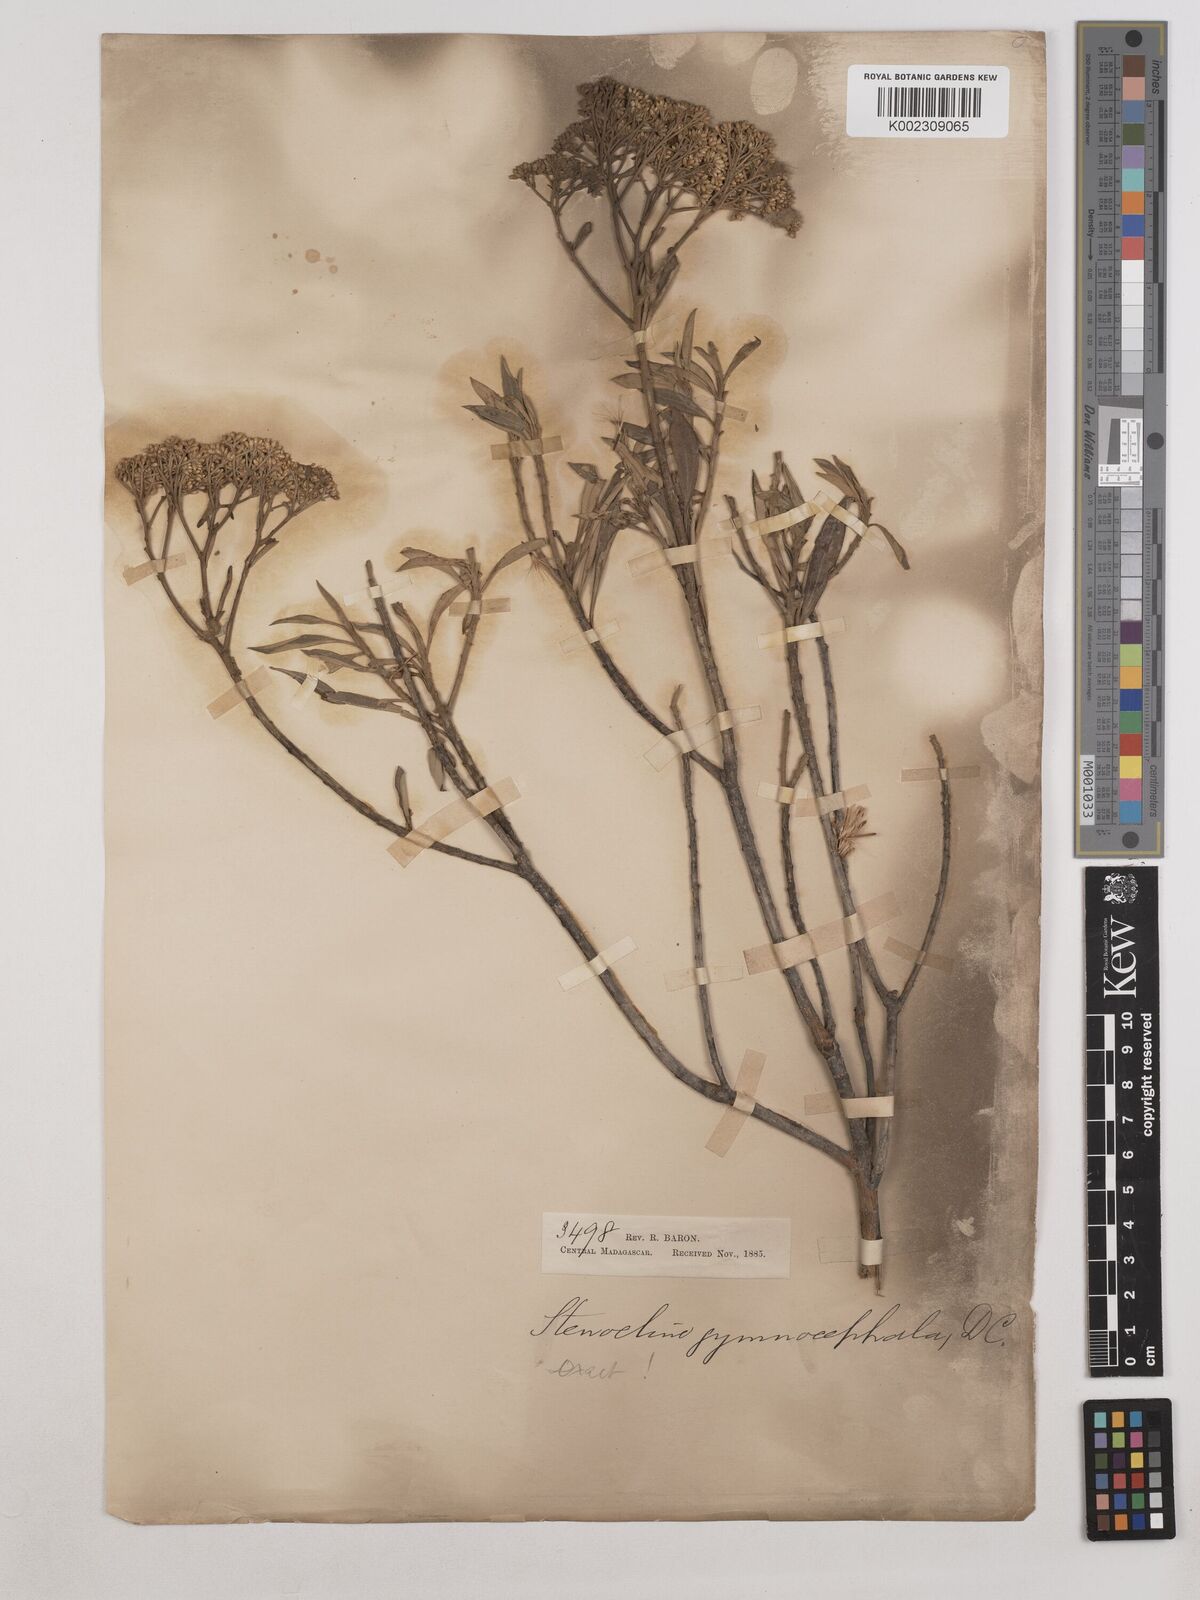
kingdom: Plantae
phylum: Tracheophyta
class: Magnoliopsida
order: Asterales
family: Asteraceae
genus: Helichrysum
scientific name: Helichrysum gymnocephalum
